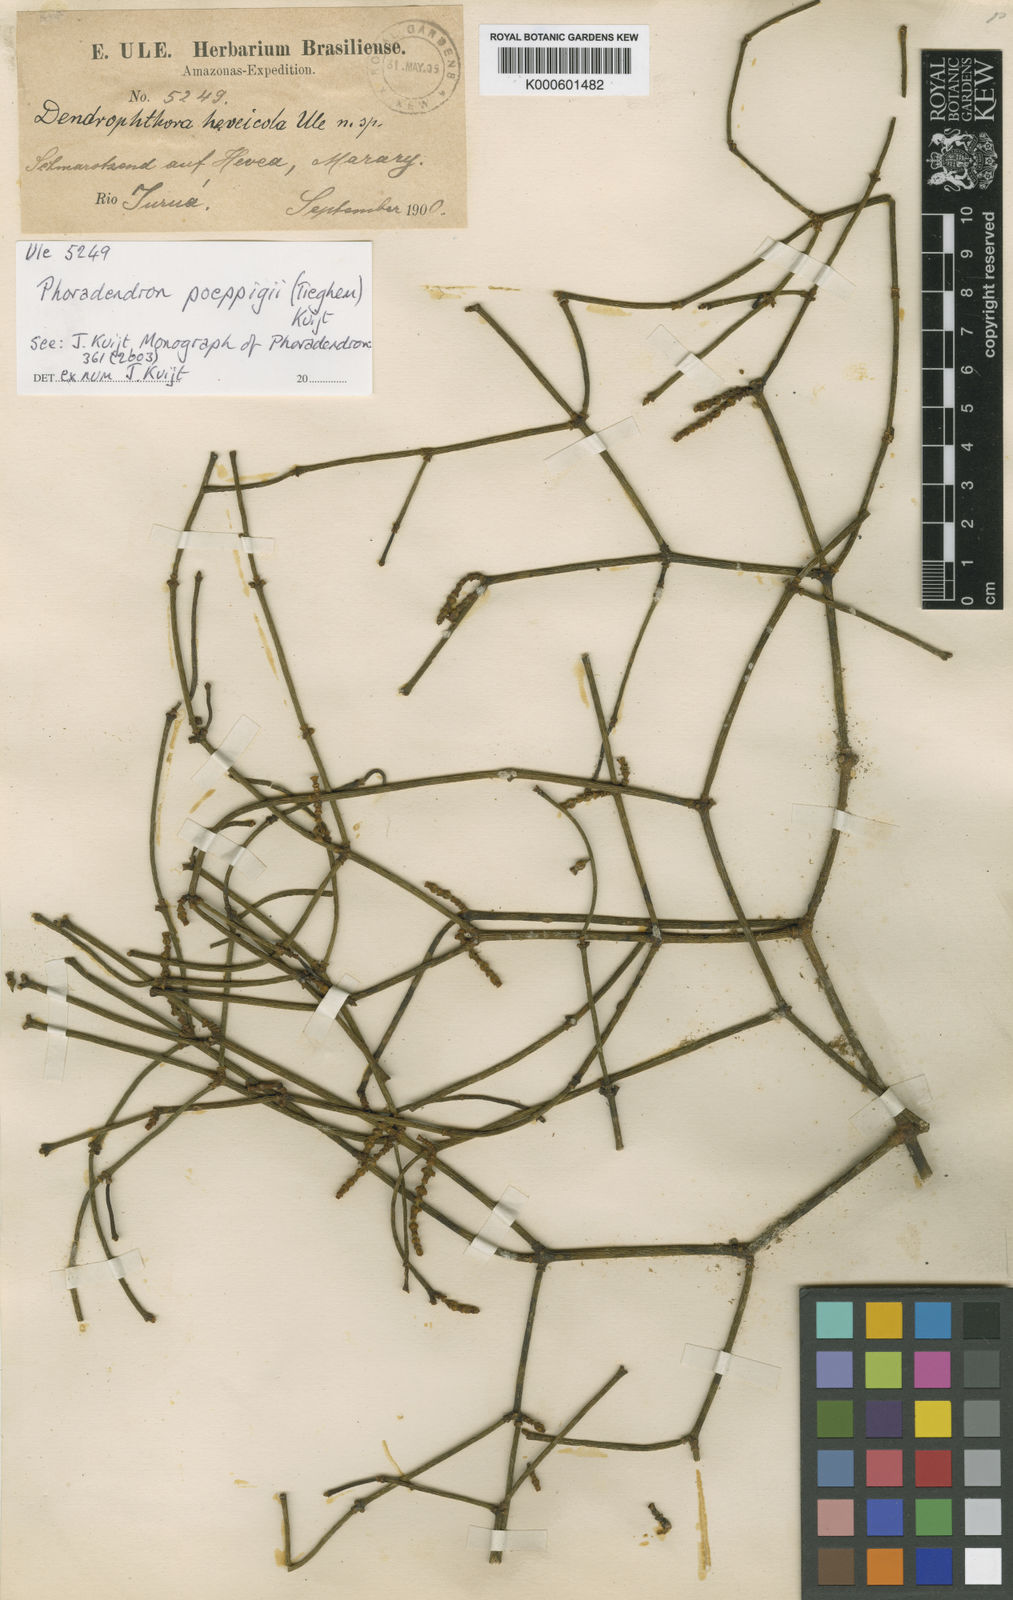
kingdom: Plantae
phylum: Tracheophyta
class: Magnoliopsida
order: Santalales
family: Viscaceae
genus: Phoradendron
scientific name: Phoradendron poeppigii
